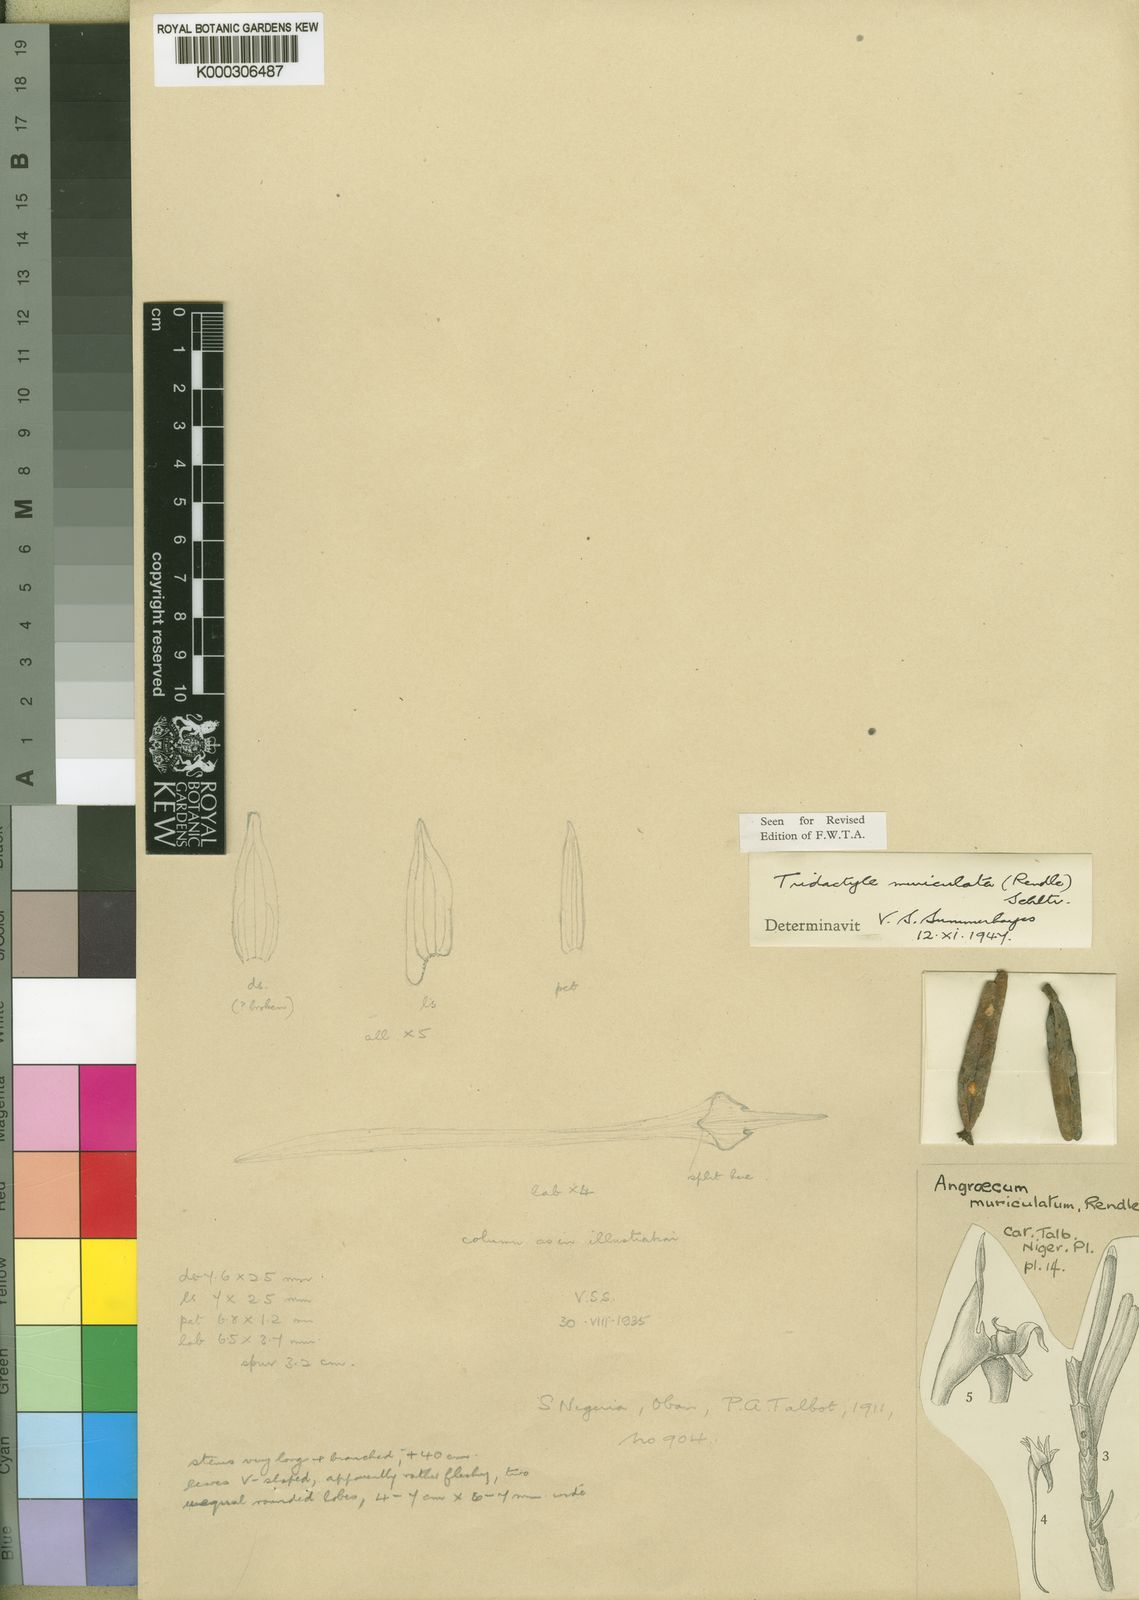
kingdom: Plantae
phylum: Tracheophyta
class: Liliopsida
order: Asparagales
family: Orchidaceae
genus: Tridactyle
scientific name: Tridactyle muriculata
